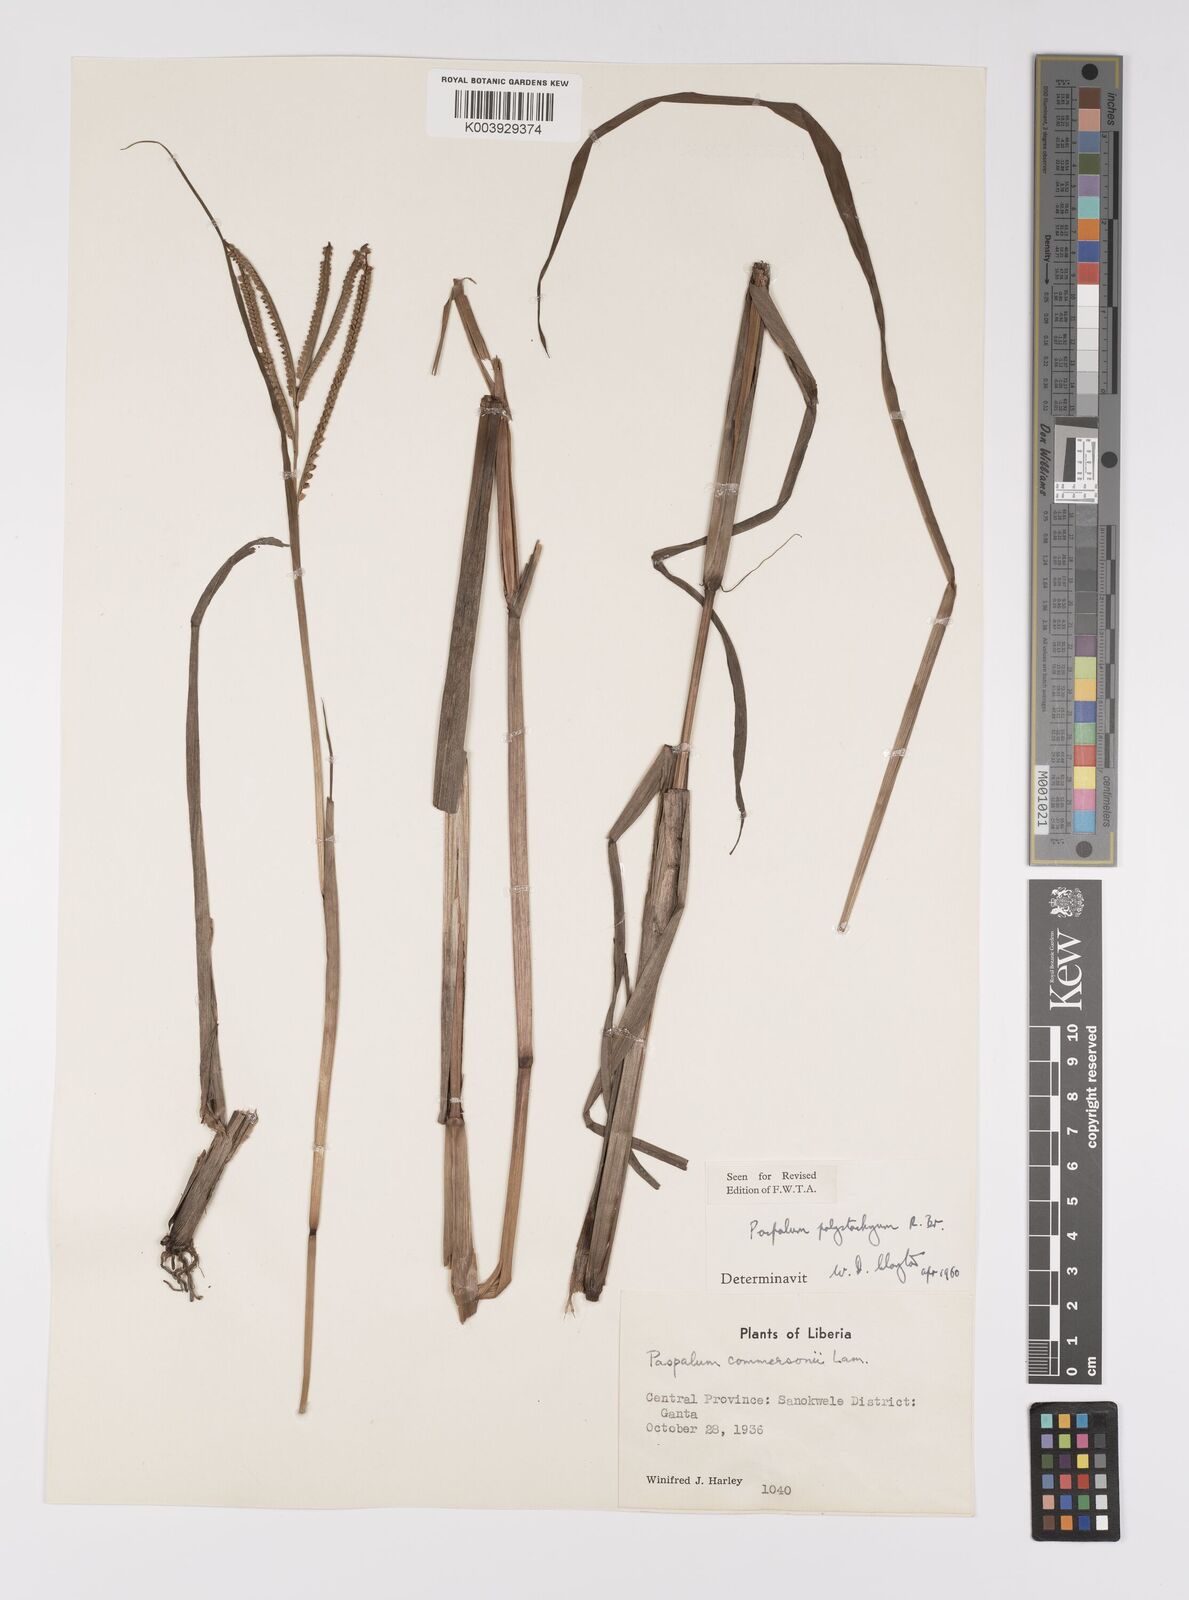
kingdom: Plantae
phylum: Tracheophyta
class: Liliopsida
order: Poales
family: Poaceae
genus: Paspalum
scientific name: Paspalum scrobiculatum
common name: Kodo millet
